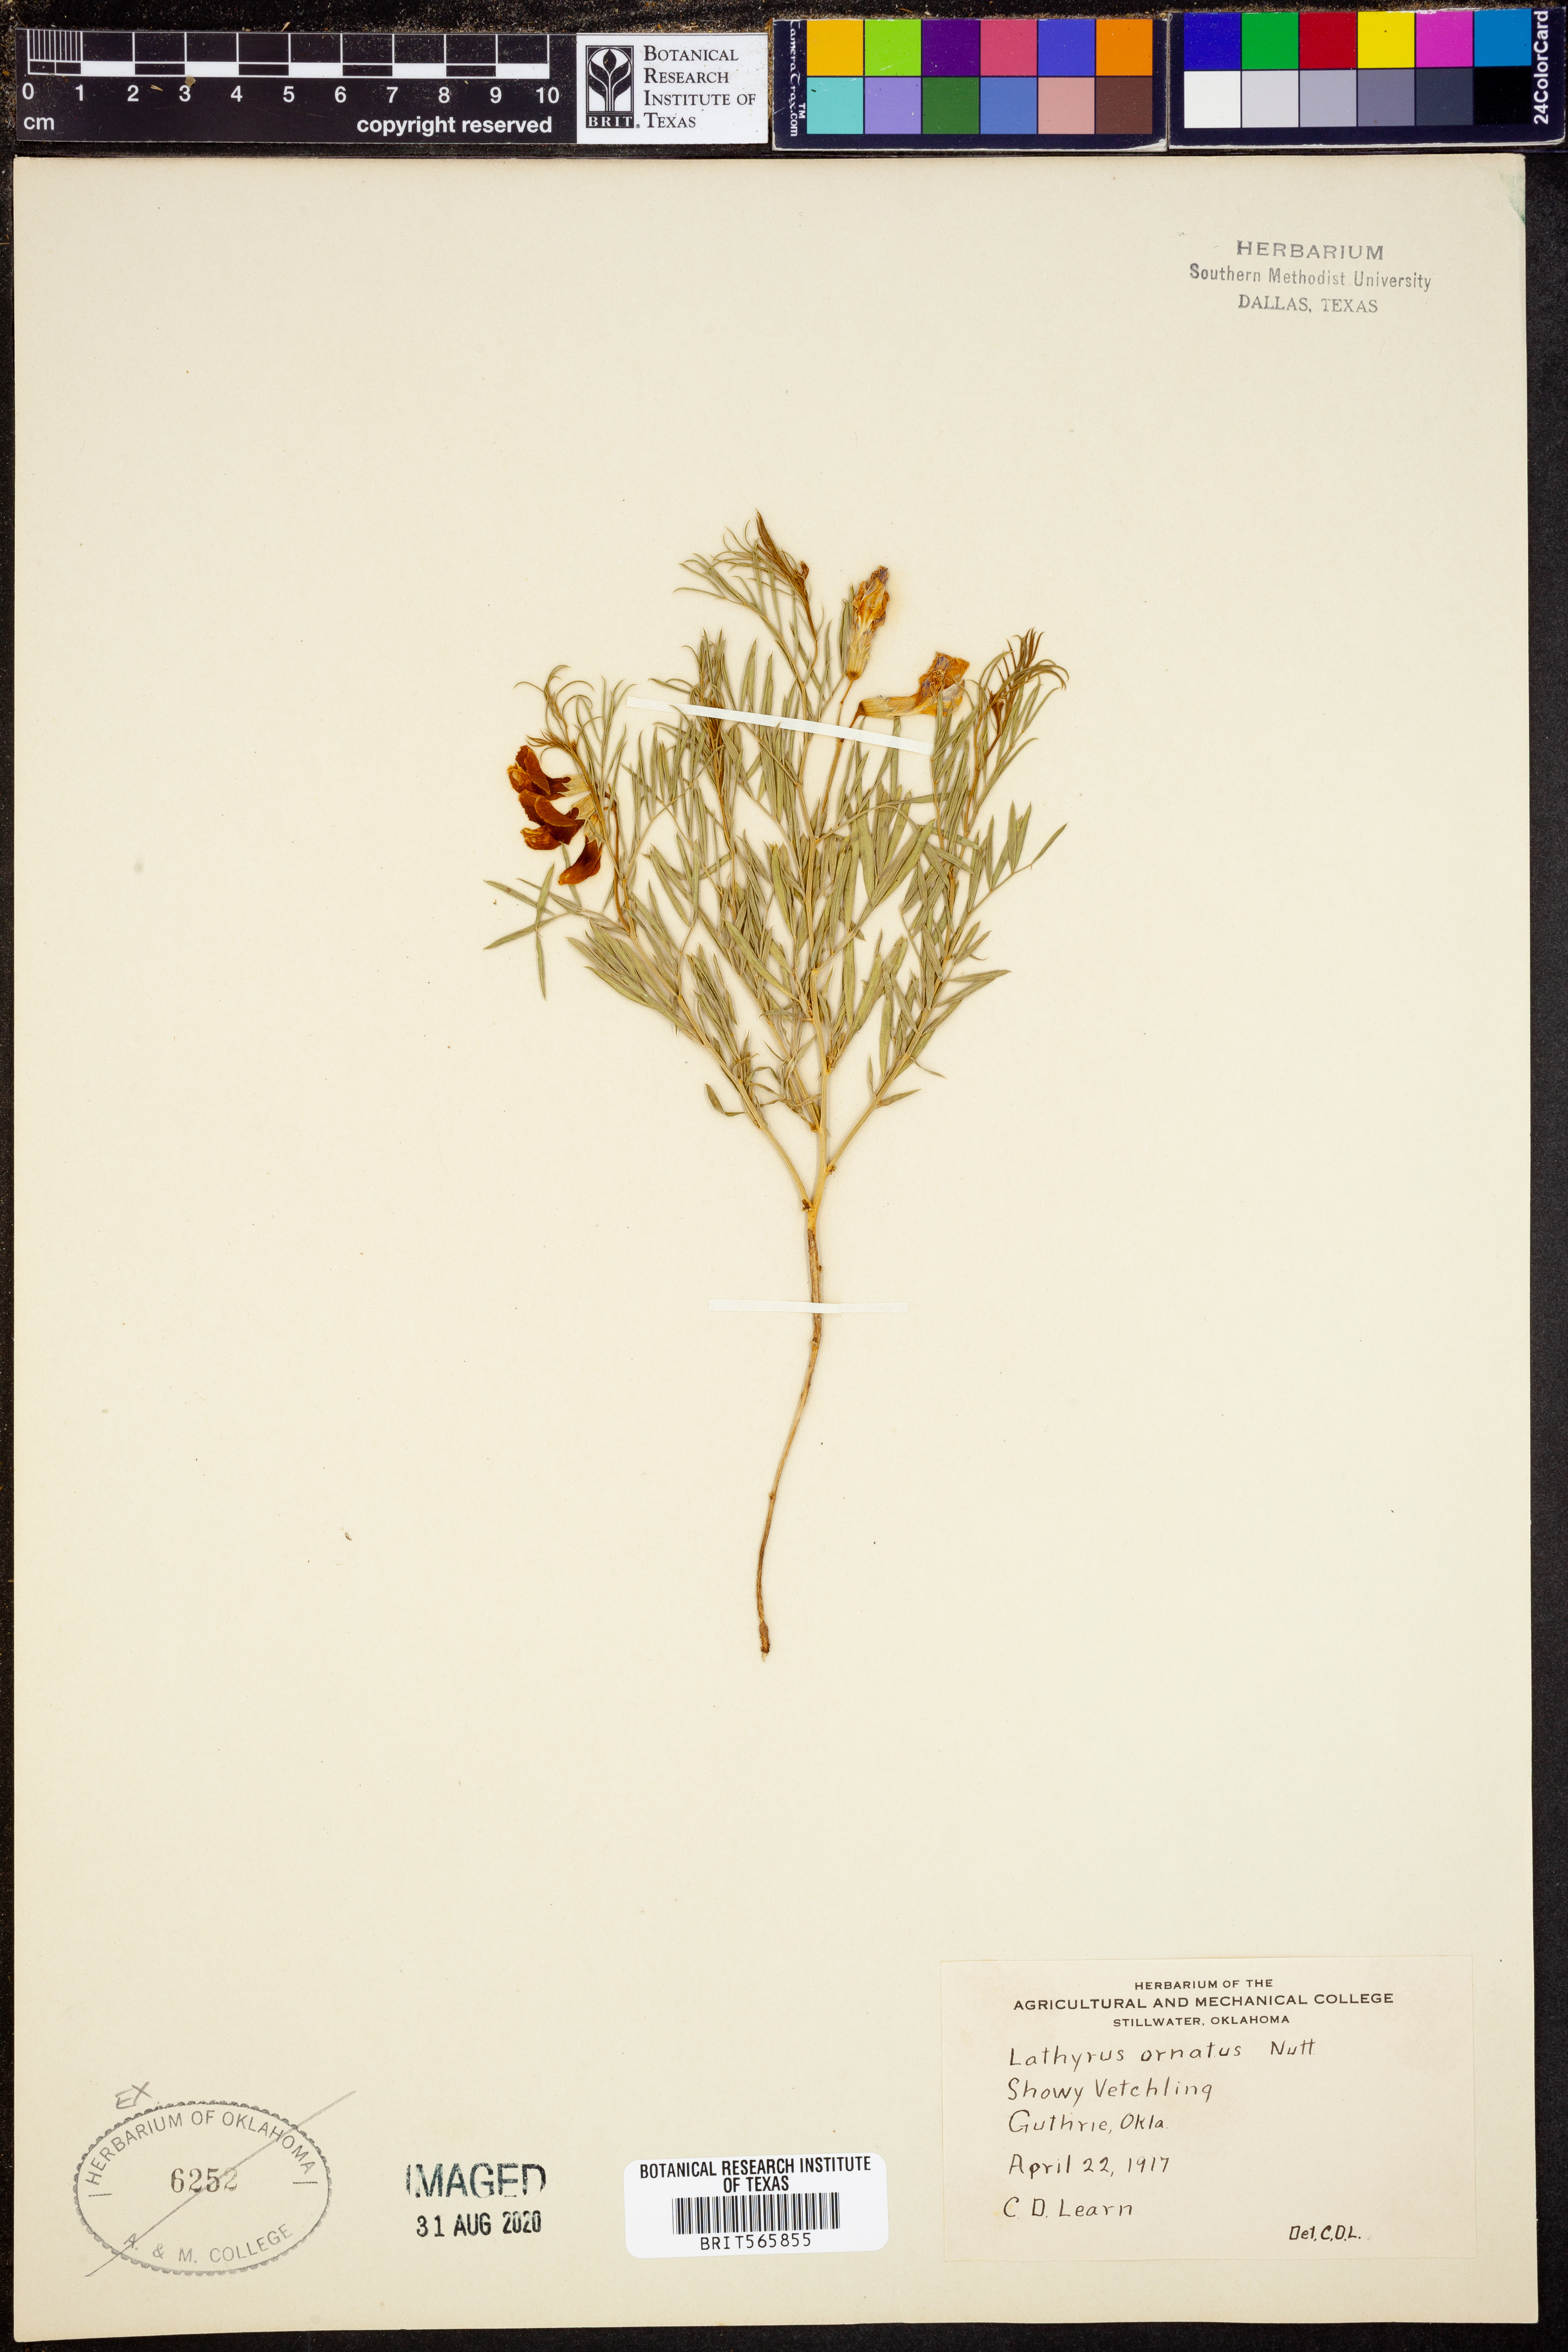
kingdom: Plantae
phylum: Tracheophyta
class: Magnoliopsida
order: Fabales
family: Fabaceae
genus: Lathyrus
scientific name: Lathyrus decaphyllus
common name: Prairie vetchling
